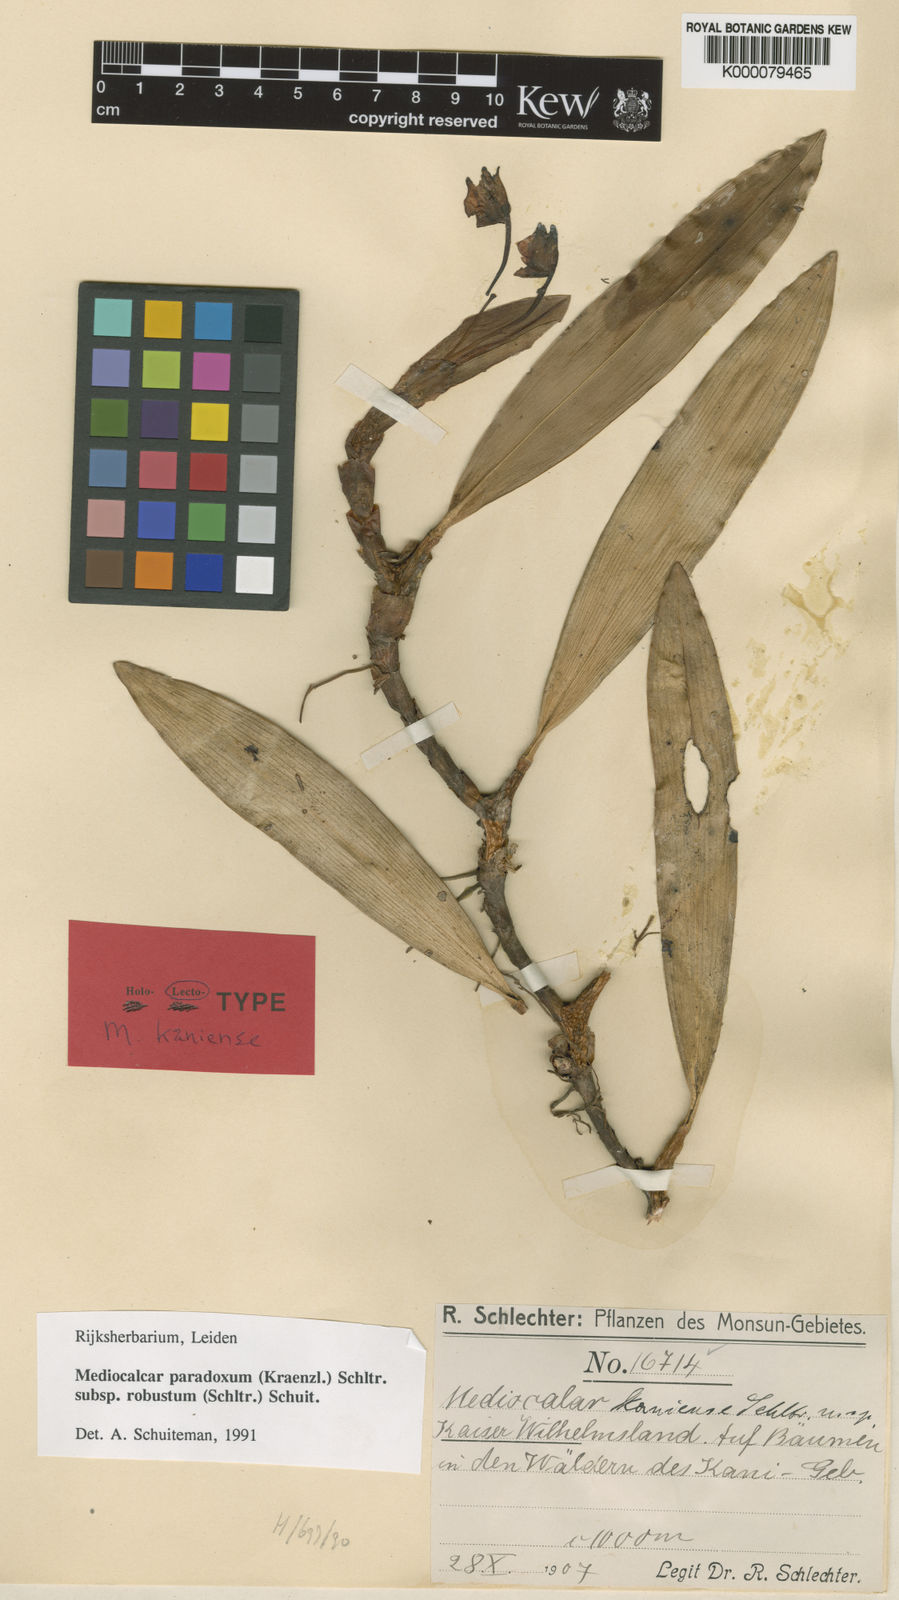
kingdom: Plantae
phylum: Tracheophyta
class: Liliopsida
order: Asparagales
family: Orchidaceae
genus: Mediocalcar
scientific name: Mediocalcar paradoxum
